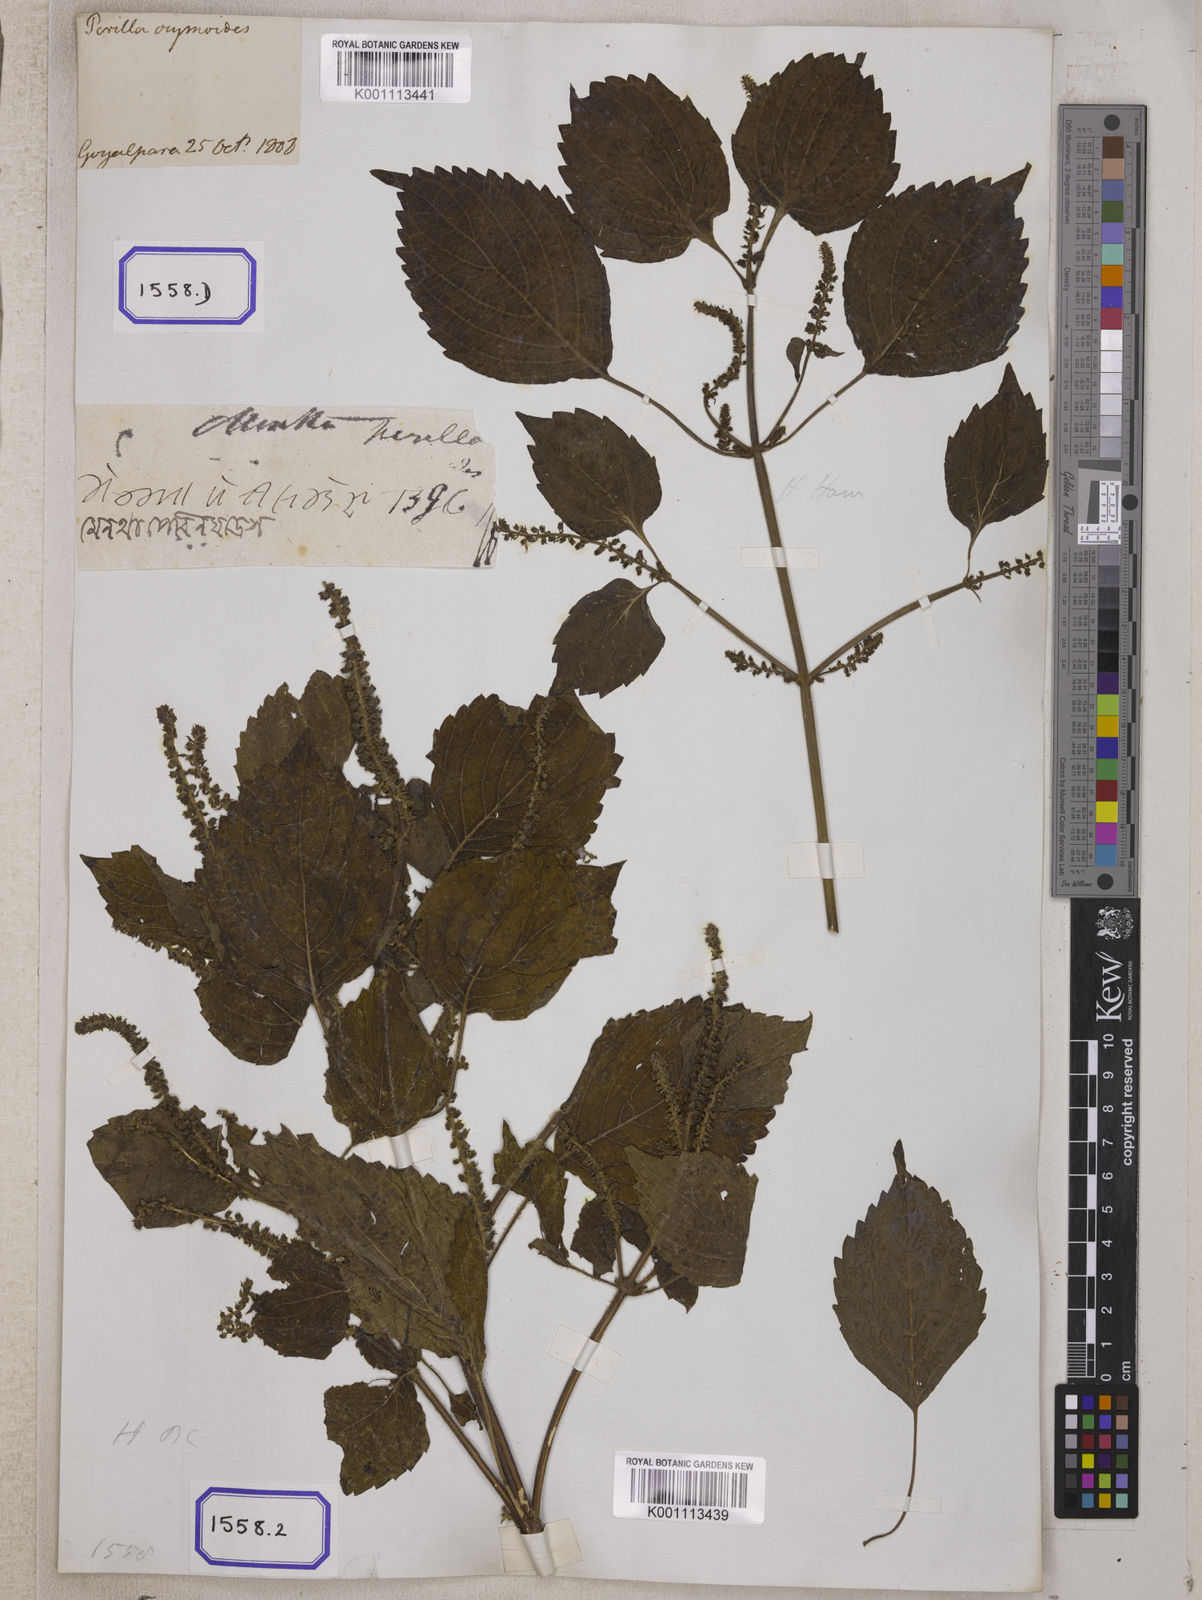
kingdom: Plantae
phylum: Tracheophyta
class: Magnoliopsida
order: Lamiales
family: Lamiaceae
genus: Perilla
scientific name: Perilla frutescens
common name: Perilla
